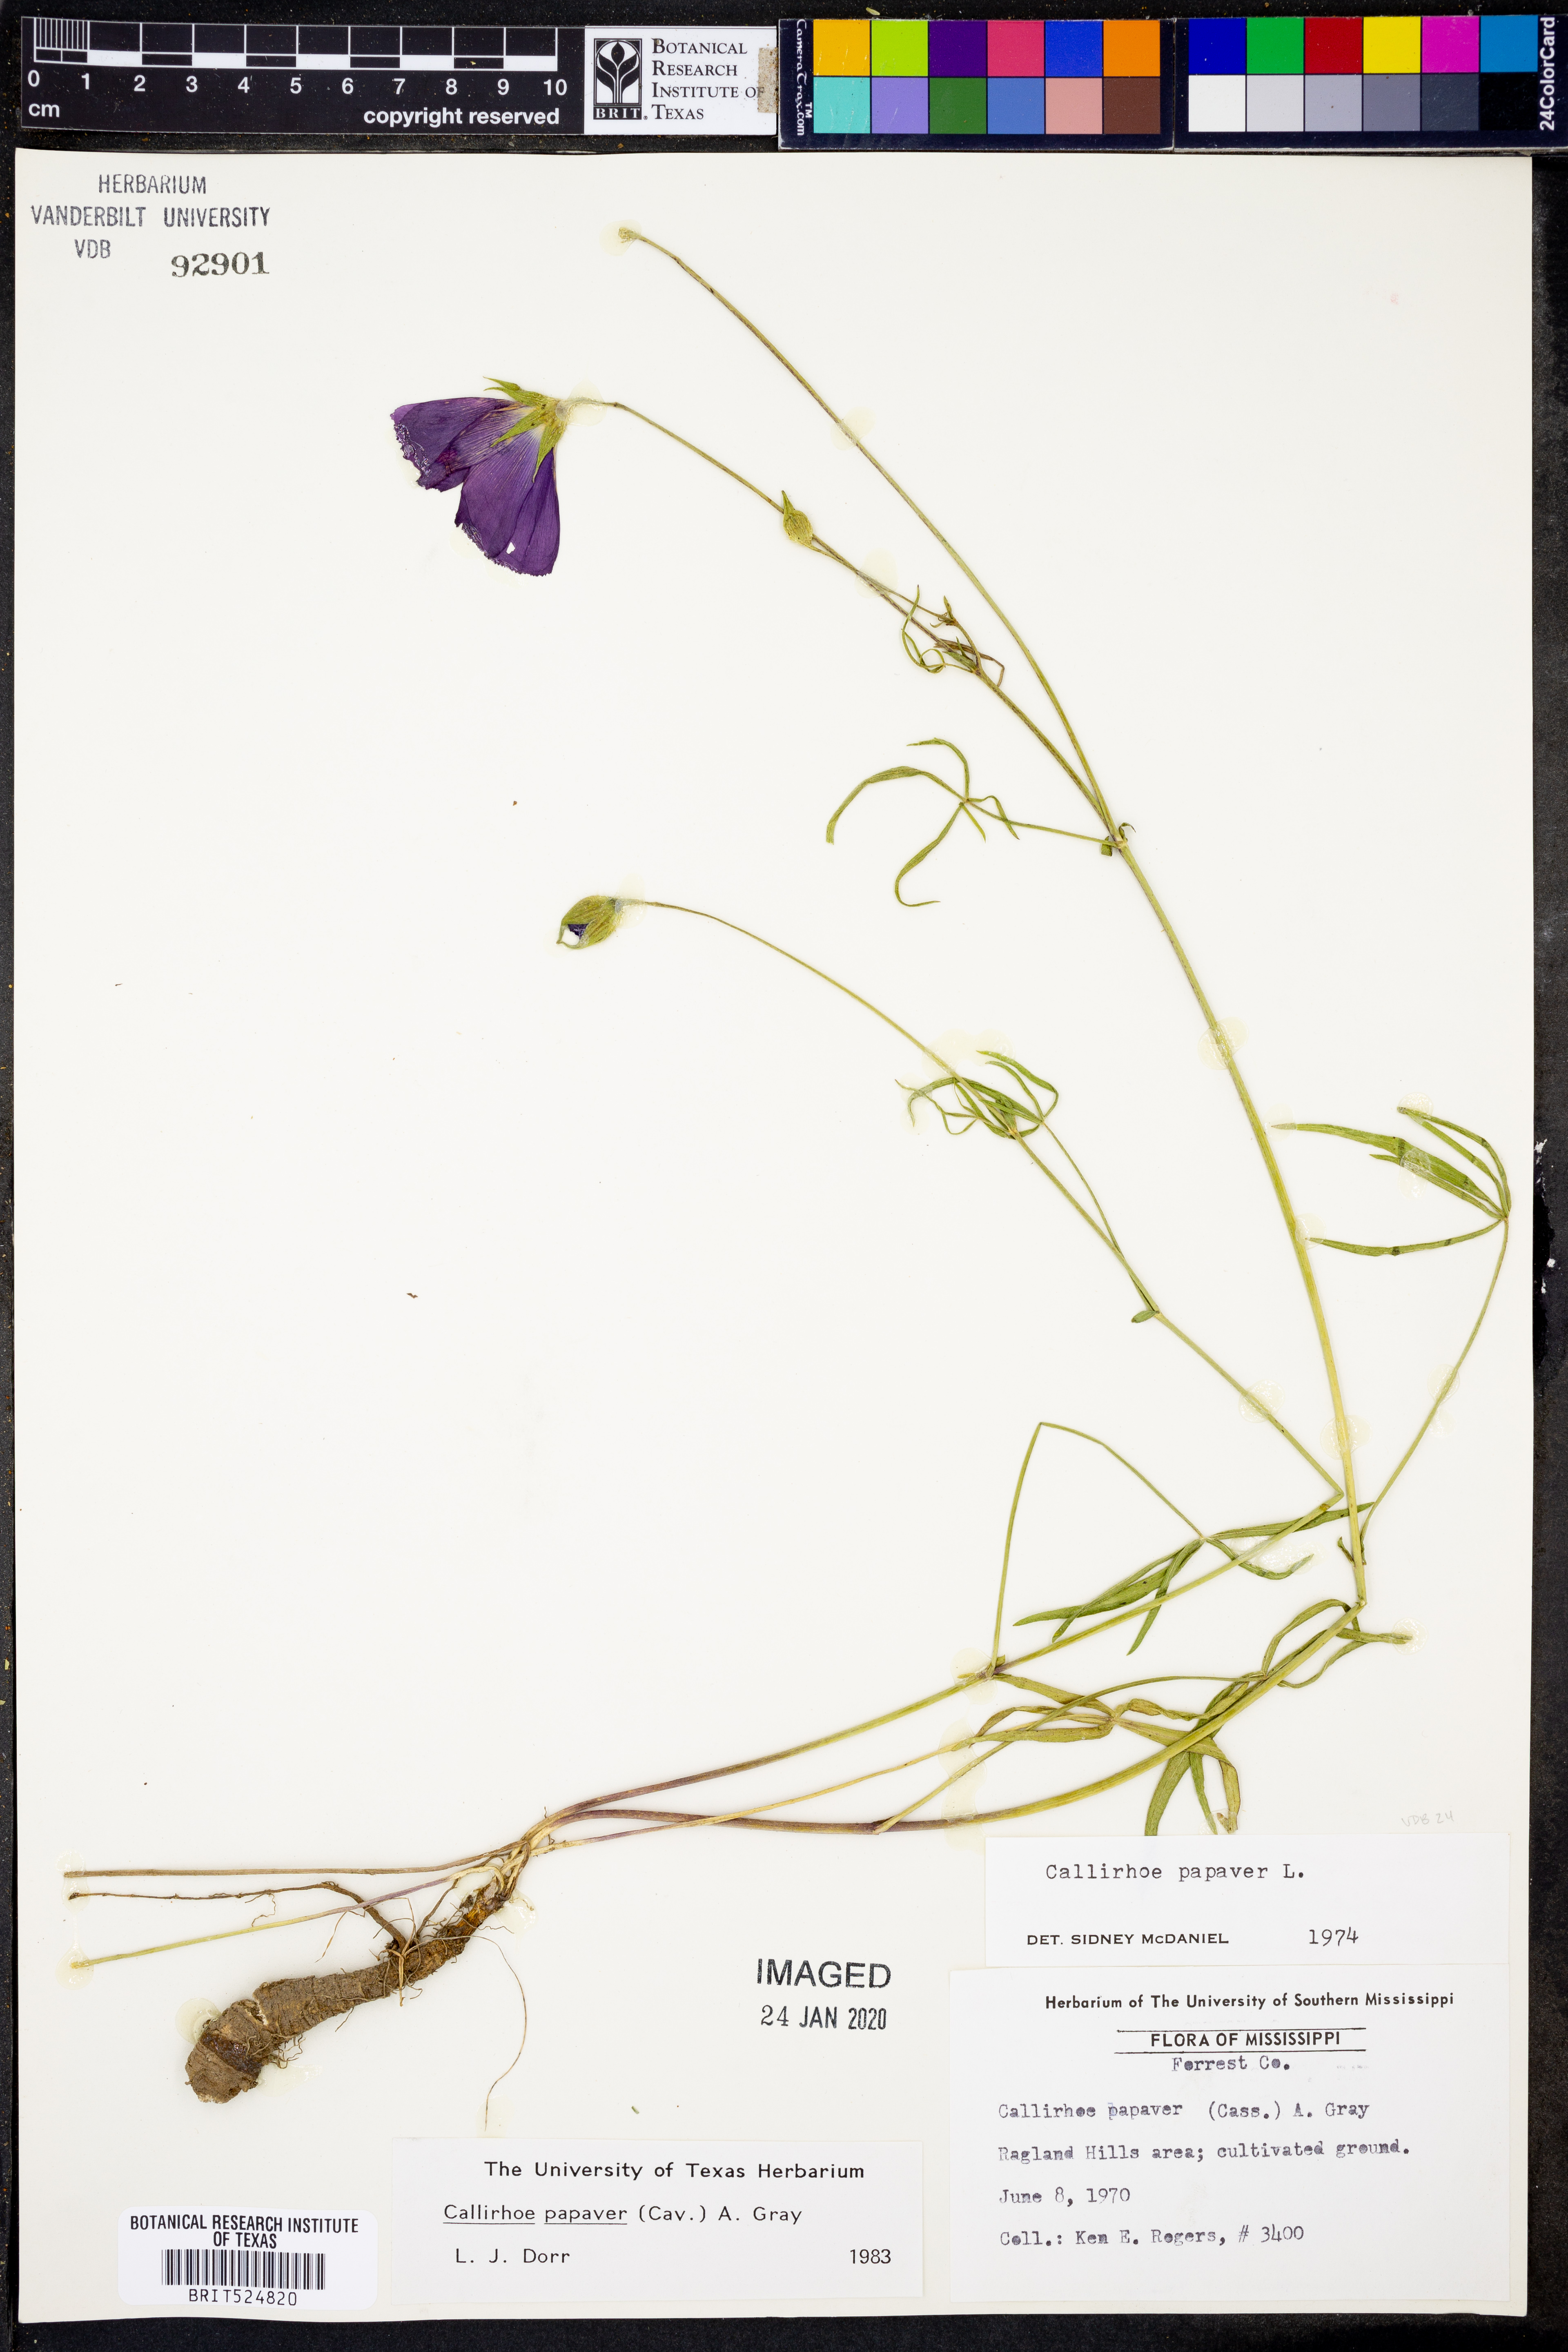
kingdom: Plantae
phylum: Tracheophyta
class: Magnoliopsida
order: Malvales
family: Malvaceae
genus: Callirhoe
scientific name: Callirhoe papaver
